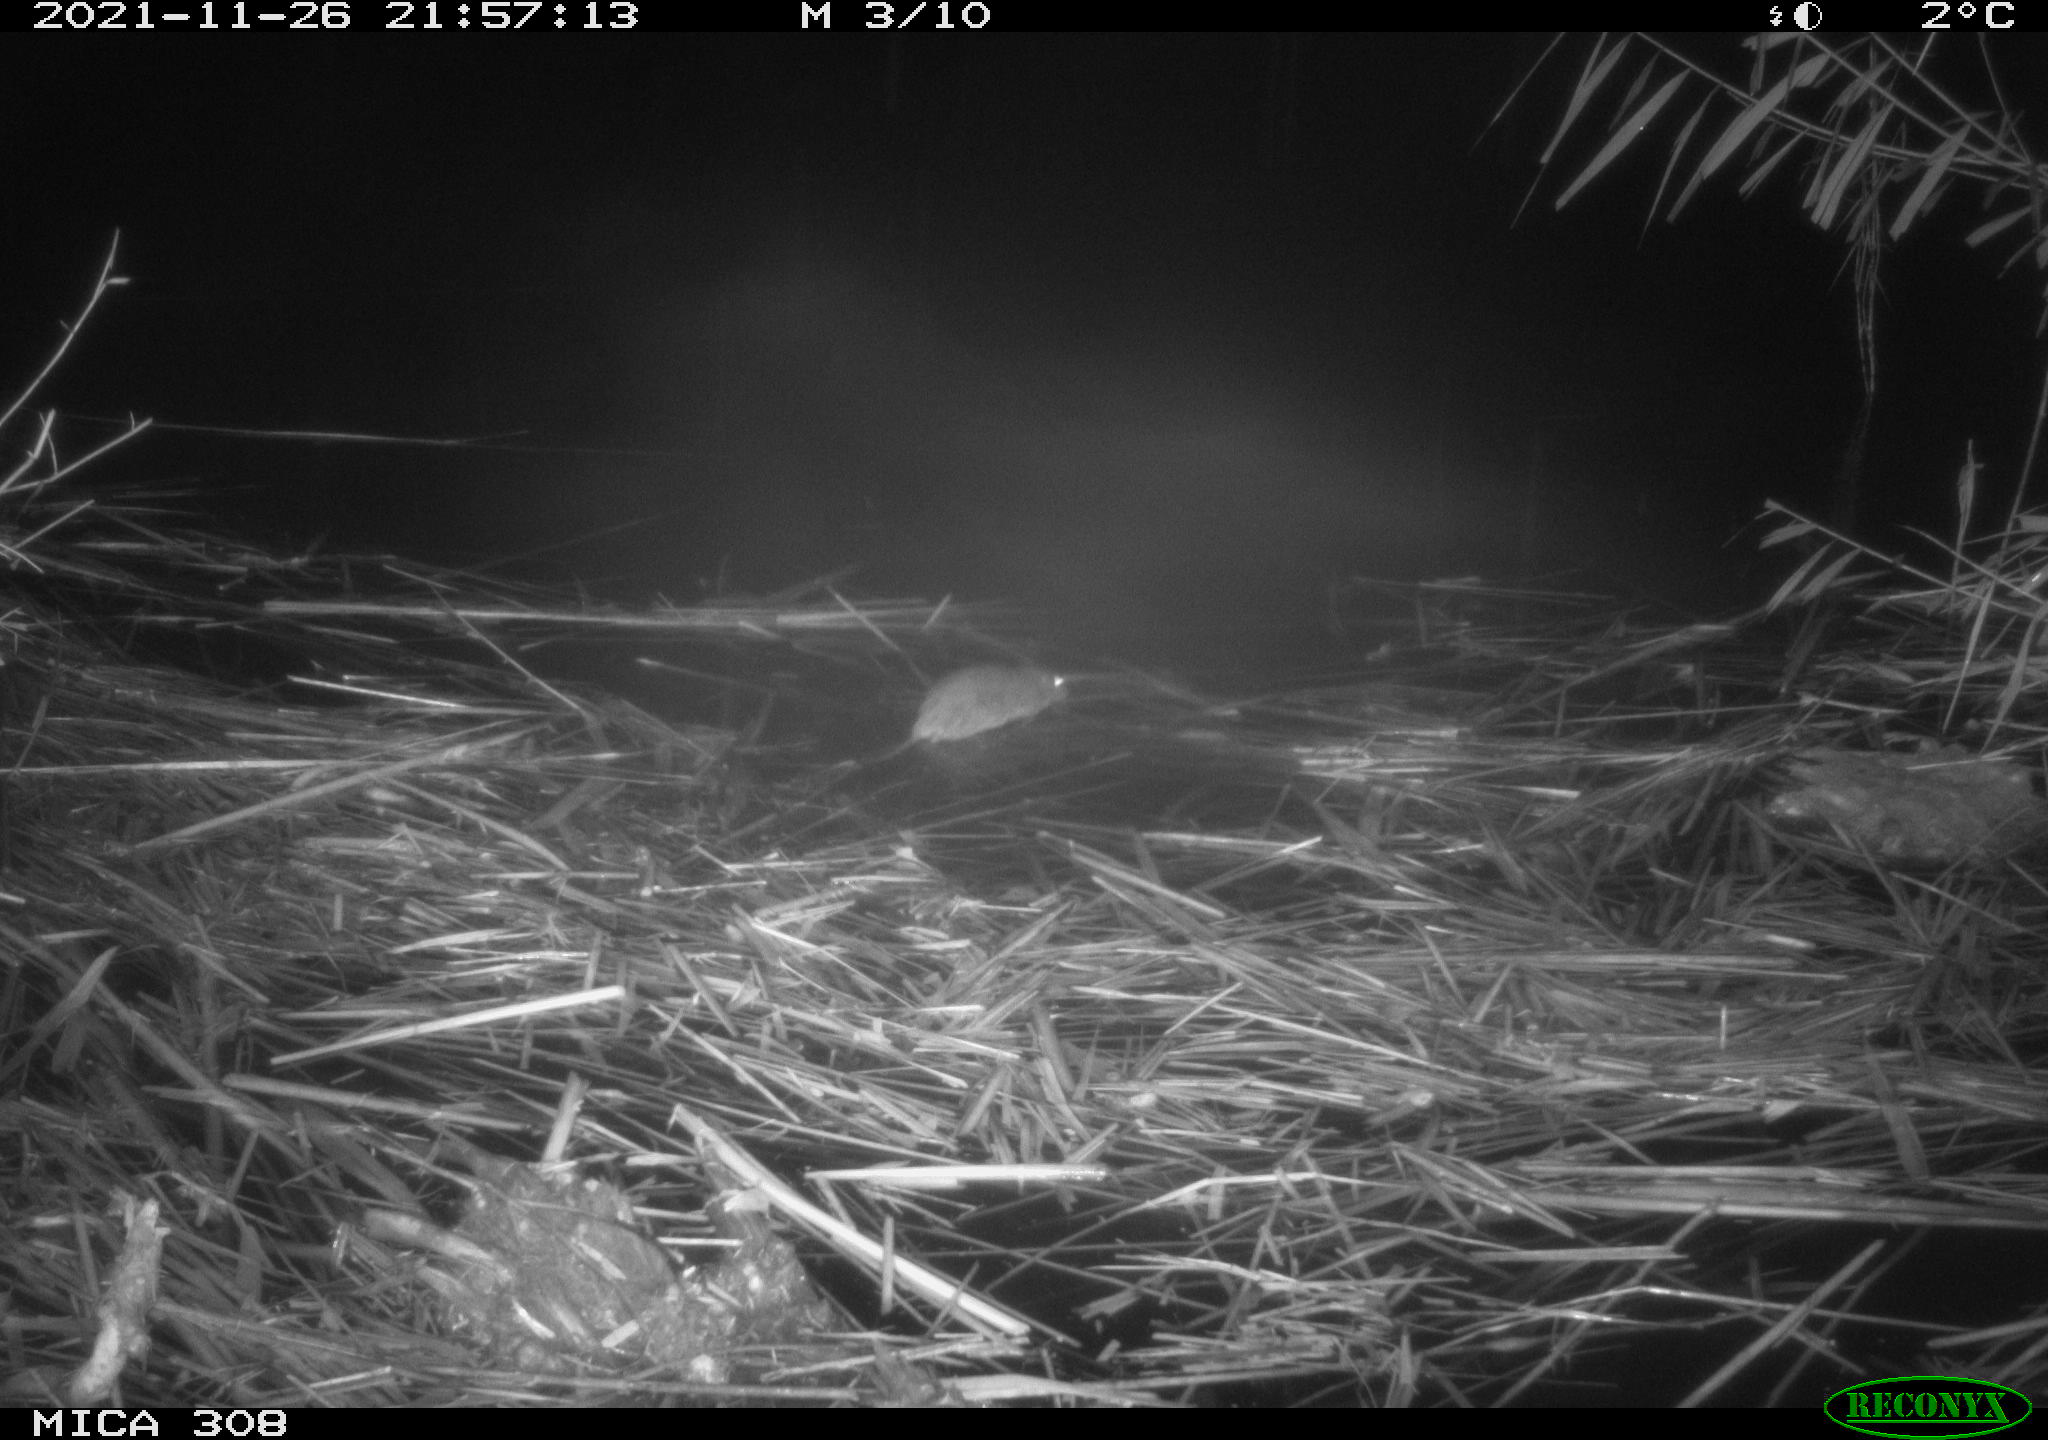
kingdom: Animalia
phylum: Chordata
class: Mammalia
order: Rodentia
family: Muridae
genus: Rattus
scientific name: Rattus norvegicus
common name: Brown rat
